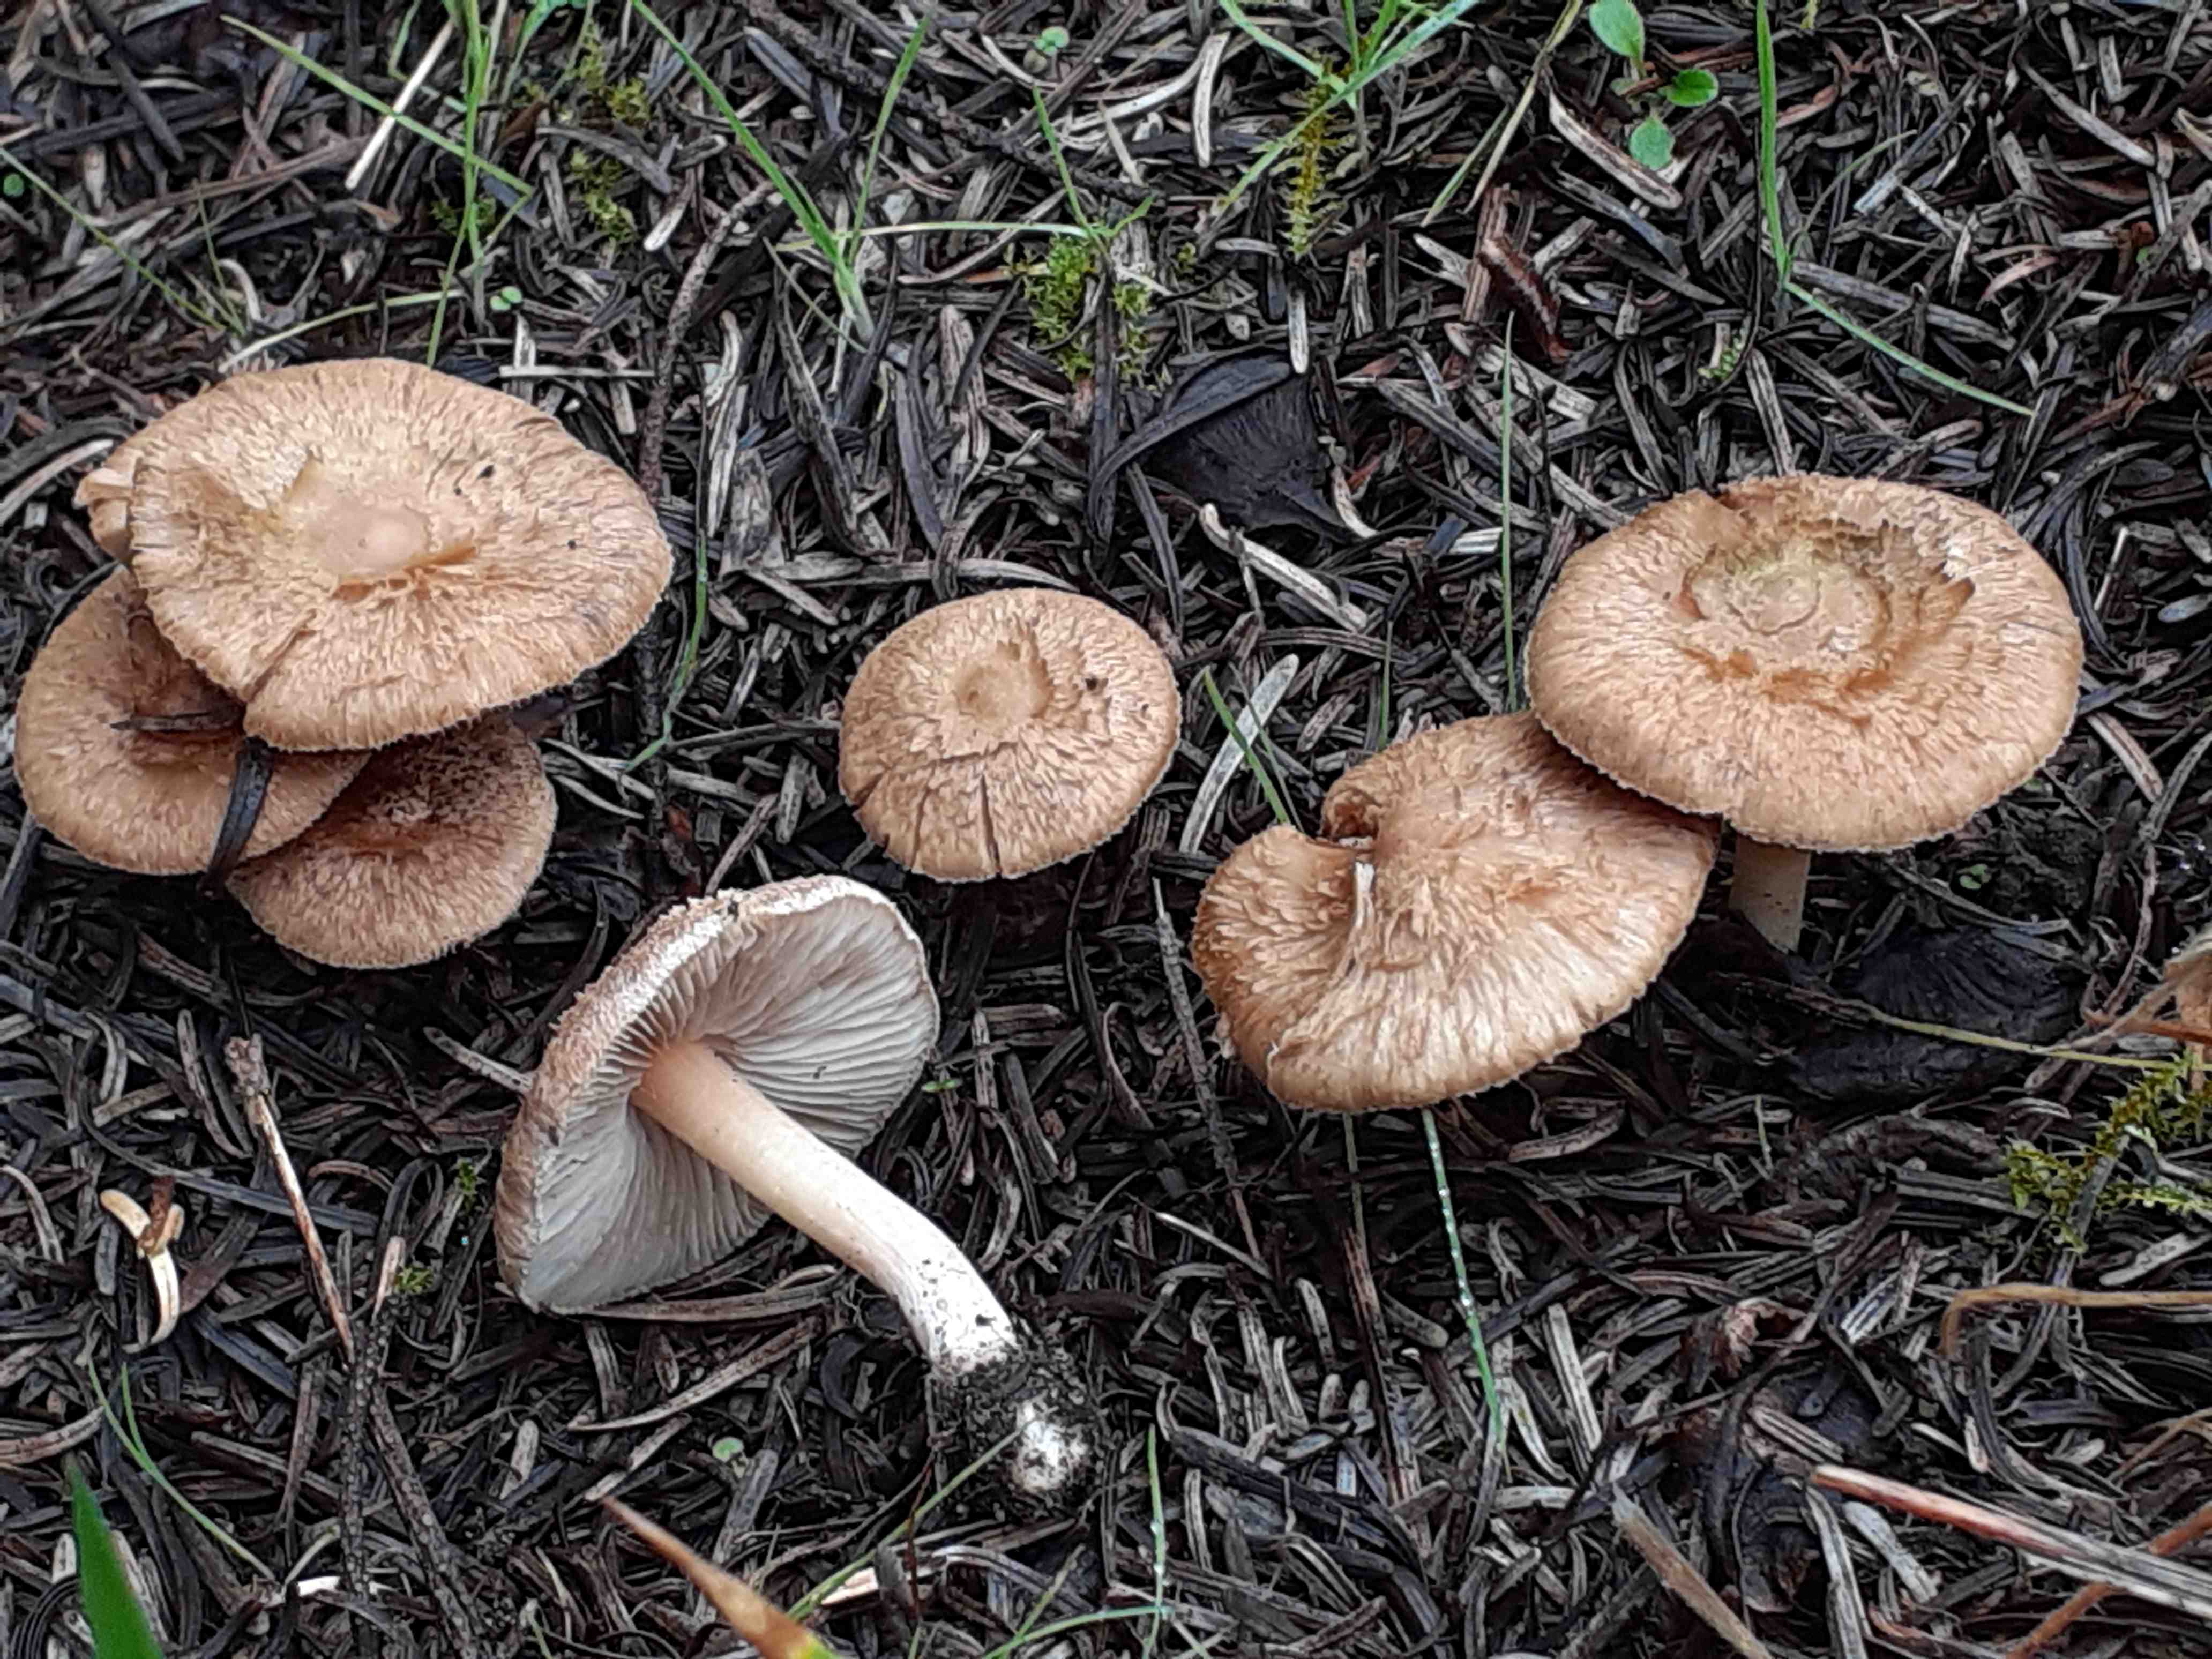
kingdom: Fungi
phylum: Basidiomycota
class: Agaricomycetes
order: Agaricales
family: Inocybaceae
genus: Inocybe
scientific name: Inocybe sindonia
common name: bleg trævlhat
